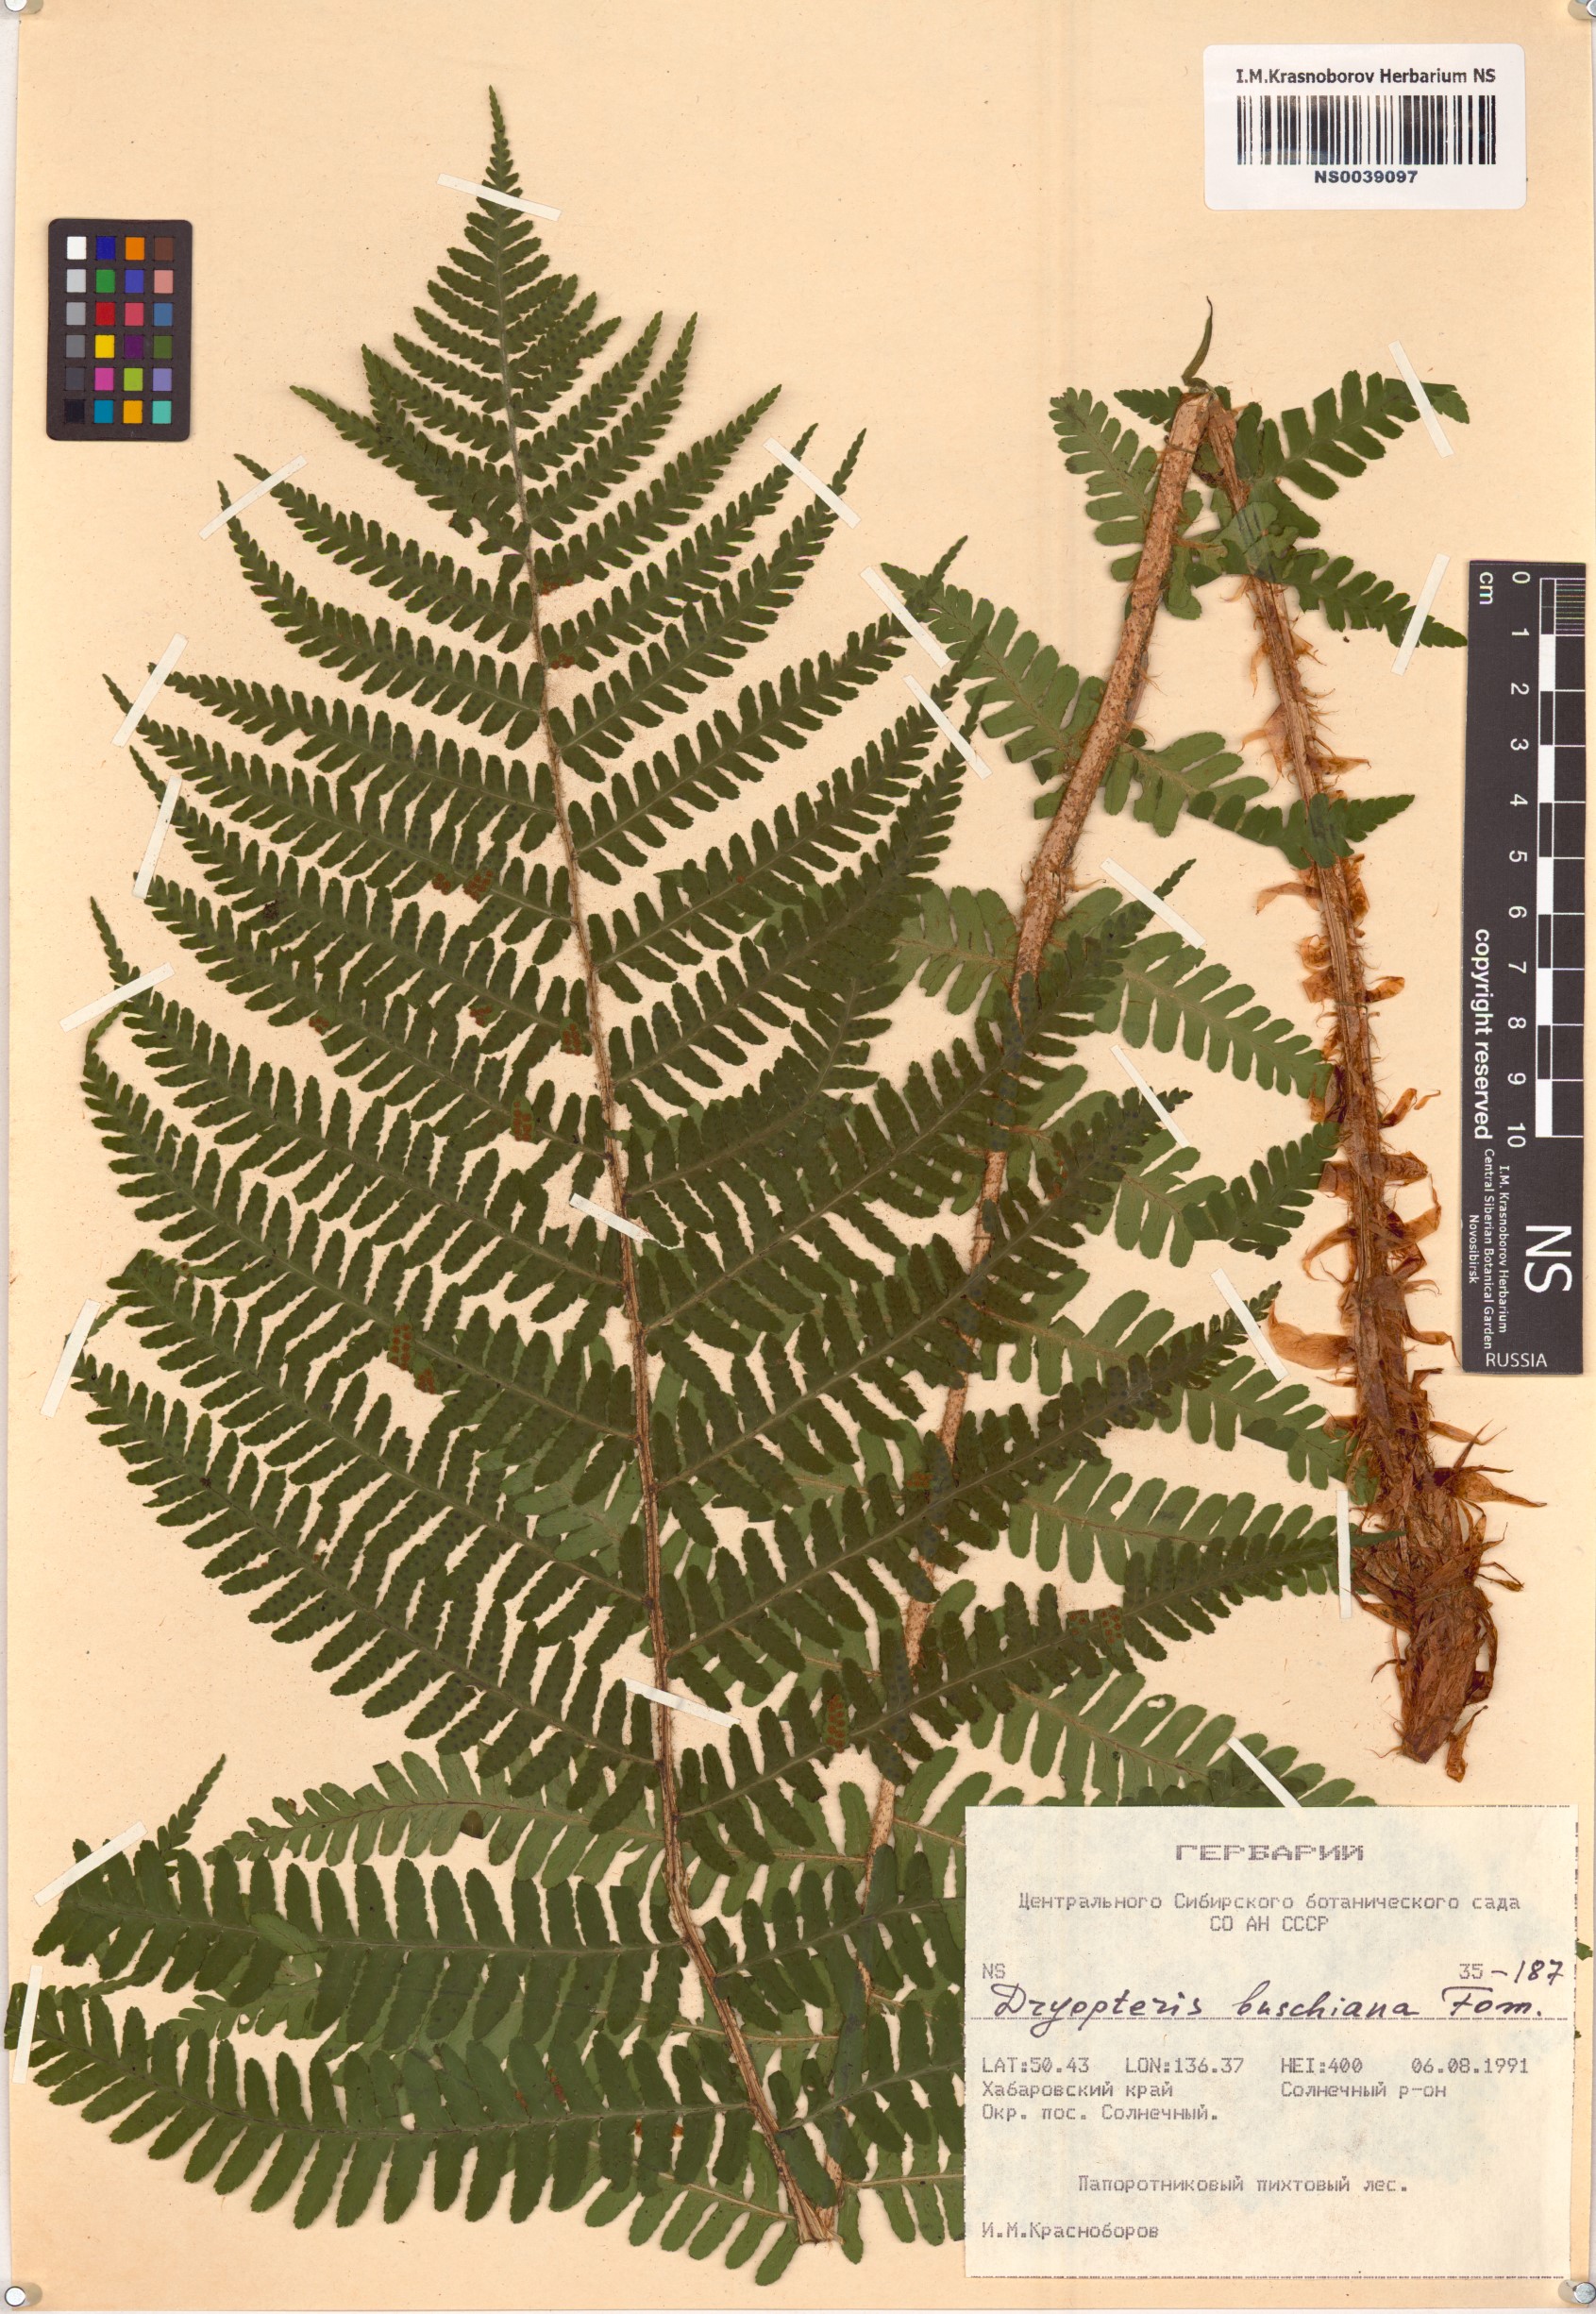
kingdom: Plantae
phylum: Tracheophyta
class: Polypodiopsida
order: Polypodiales
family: Dryopteridaceae
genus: Dryopteris
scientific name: Dryopteris crassirhizoma
